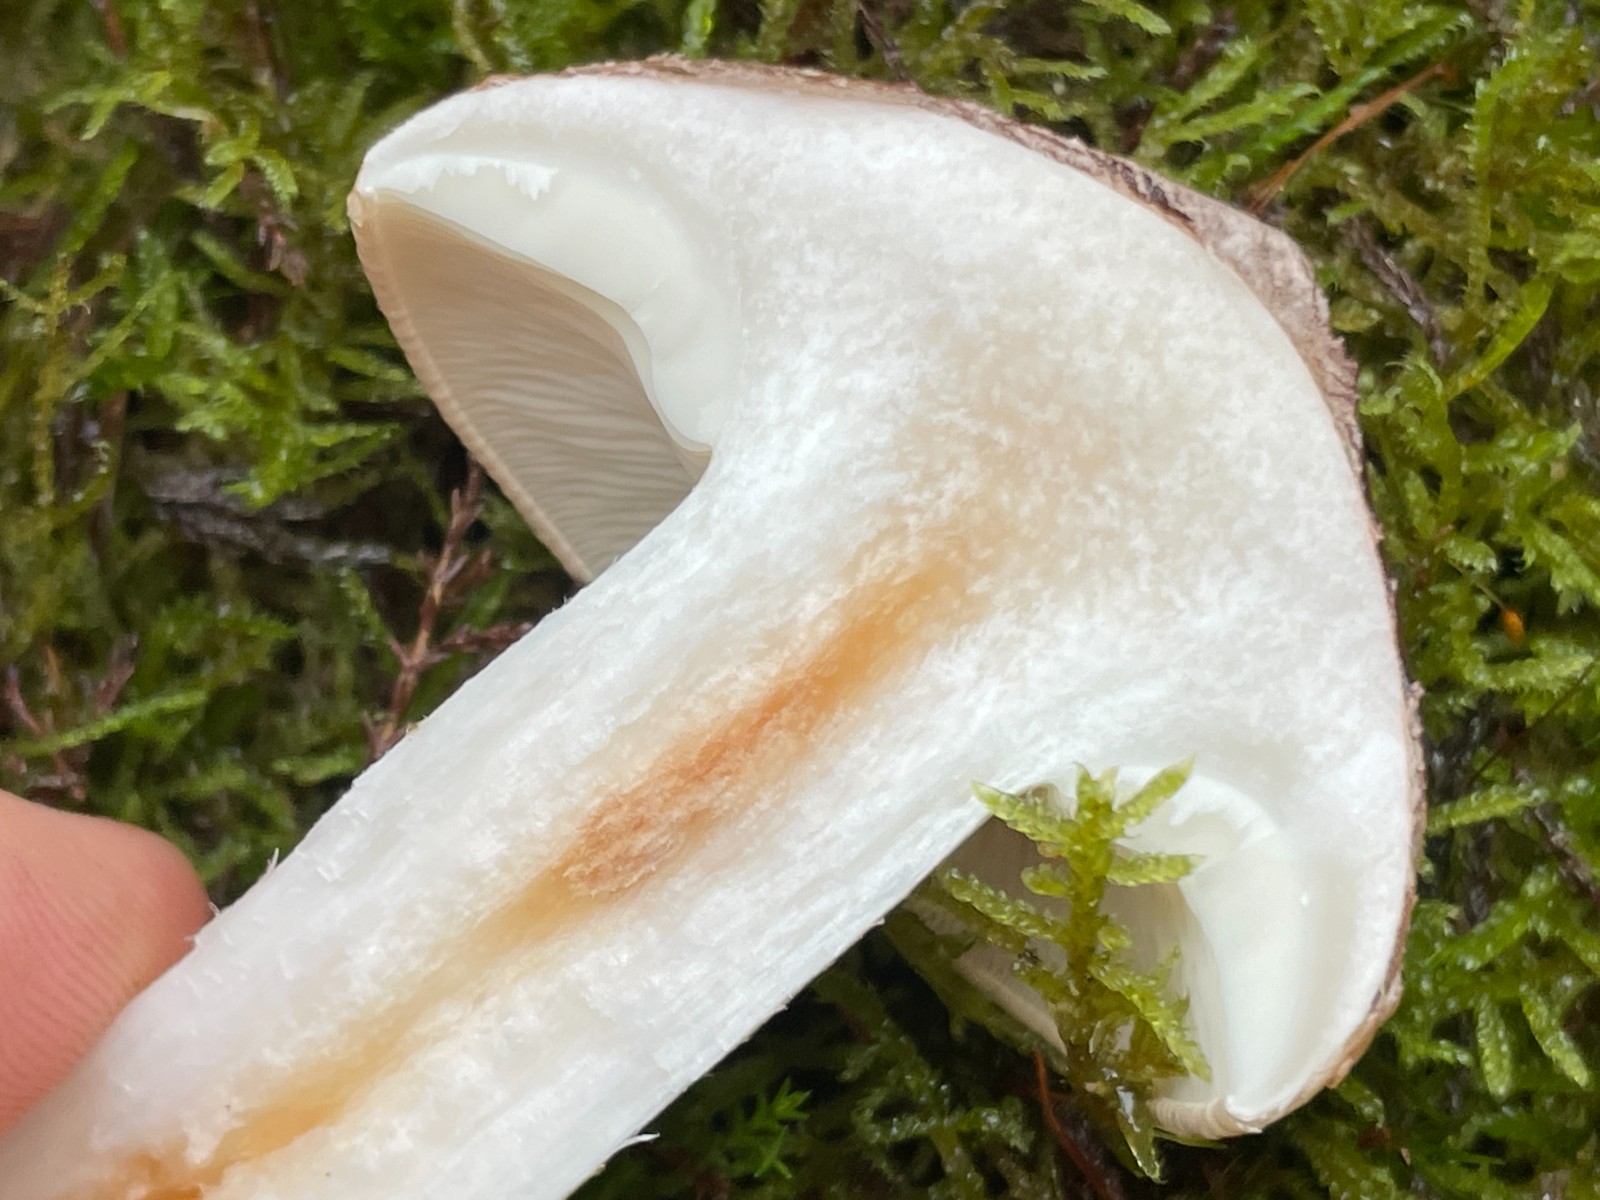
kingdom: Fungi
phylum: Basidiomycota
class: Agaricomycetes
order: Agaricales
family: Tricholomataceae
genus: Tricholoma
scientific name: Tricholoma stans
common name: stolt ridderhat
